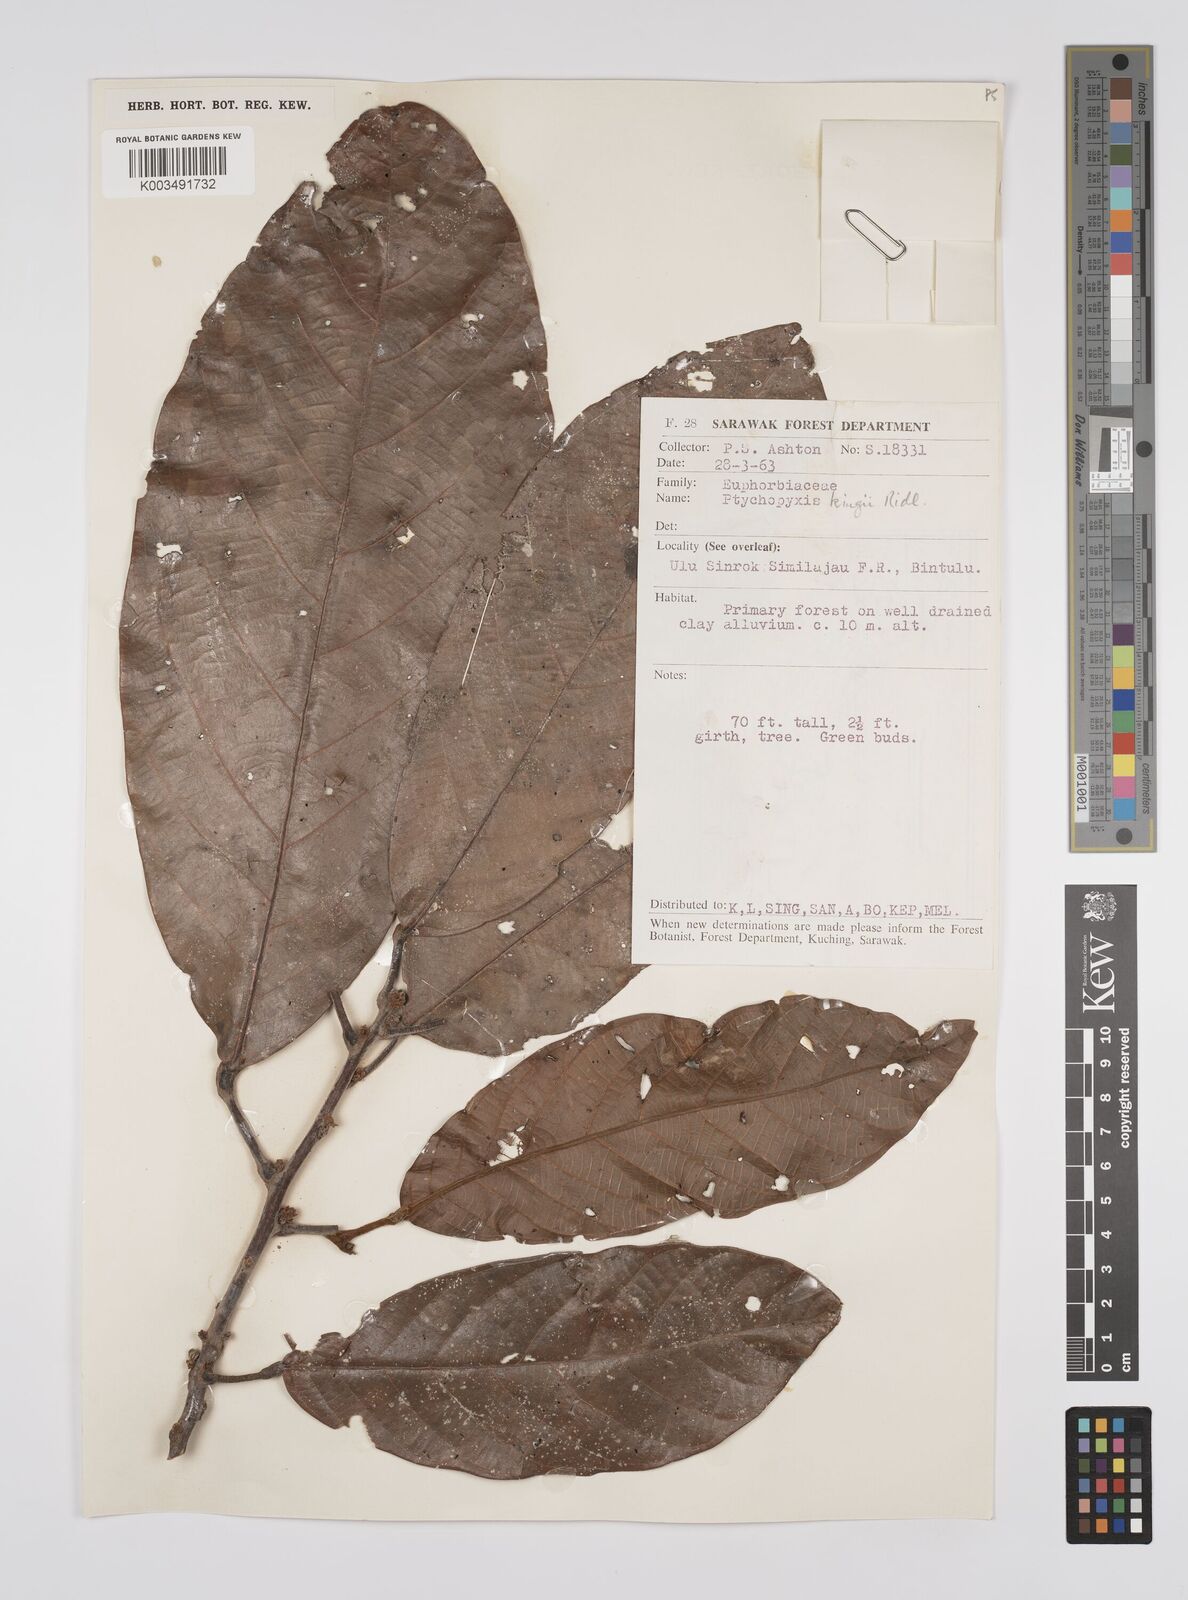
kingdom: Plantae
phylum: Tracheophyta
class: Magnoliopsida
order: Malpighiales
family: Euphorbiaceae
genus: Ptychopyxis
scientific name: Ptychopyxis kingii
